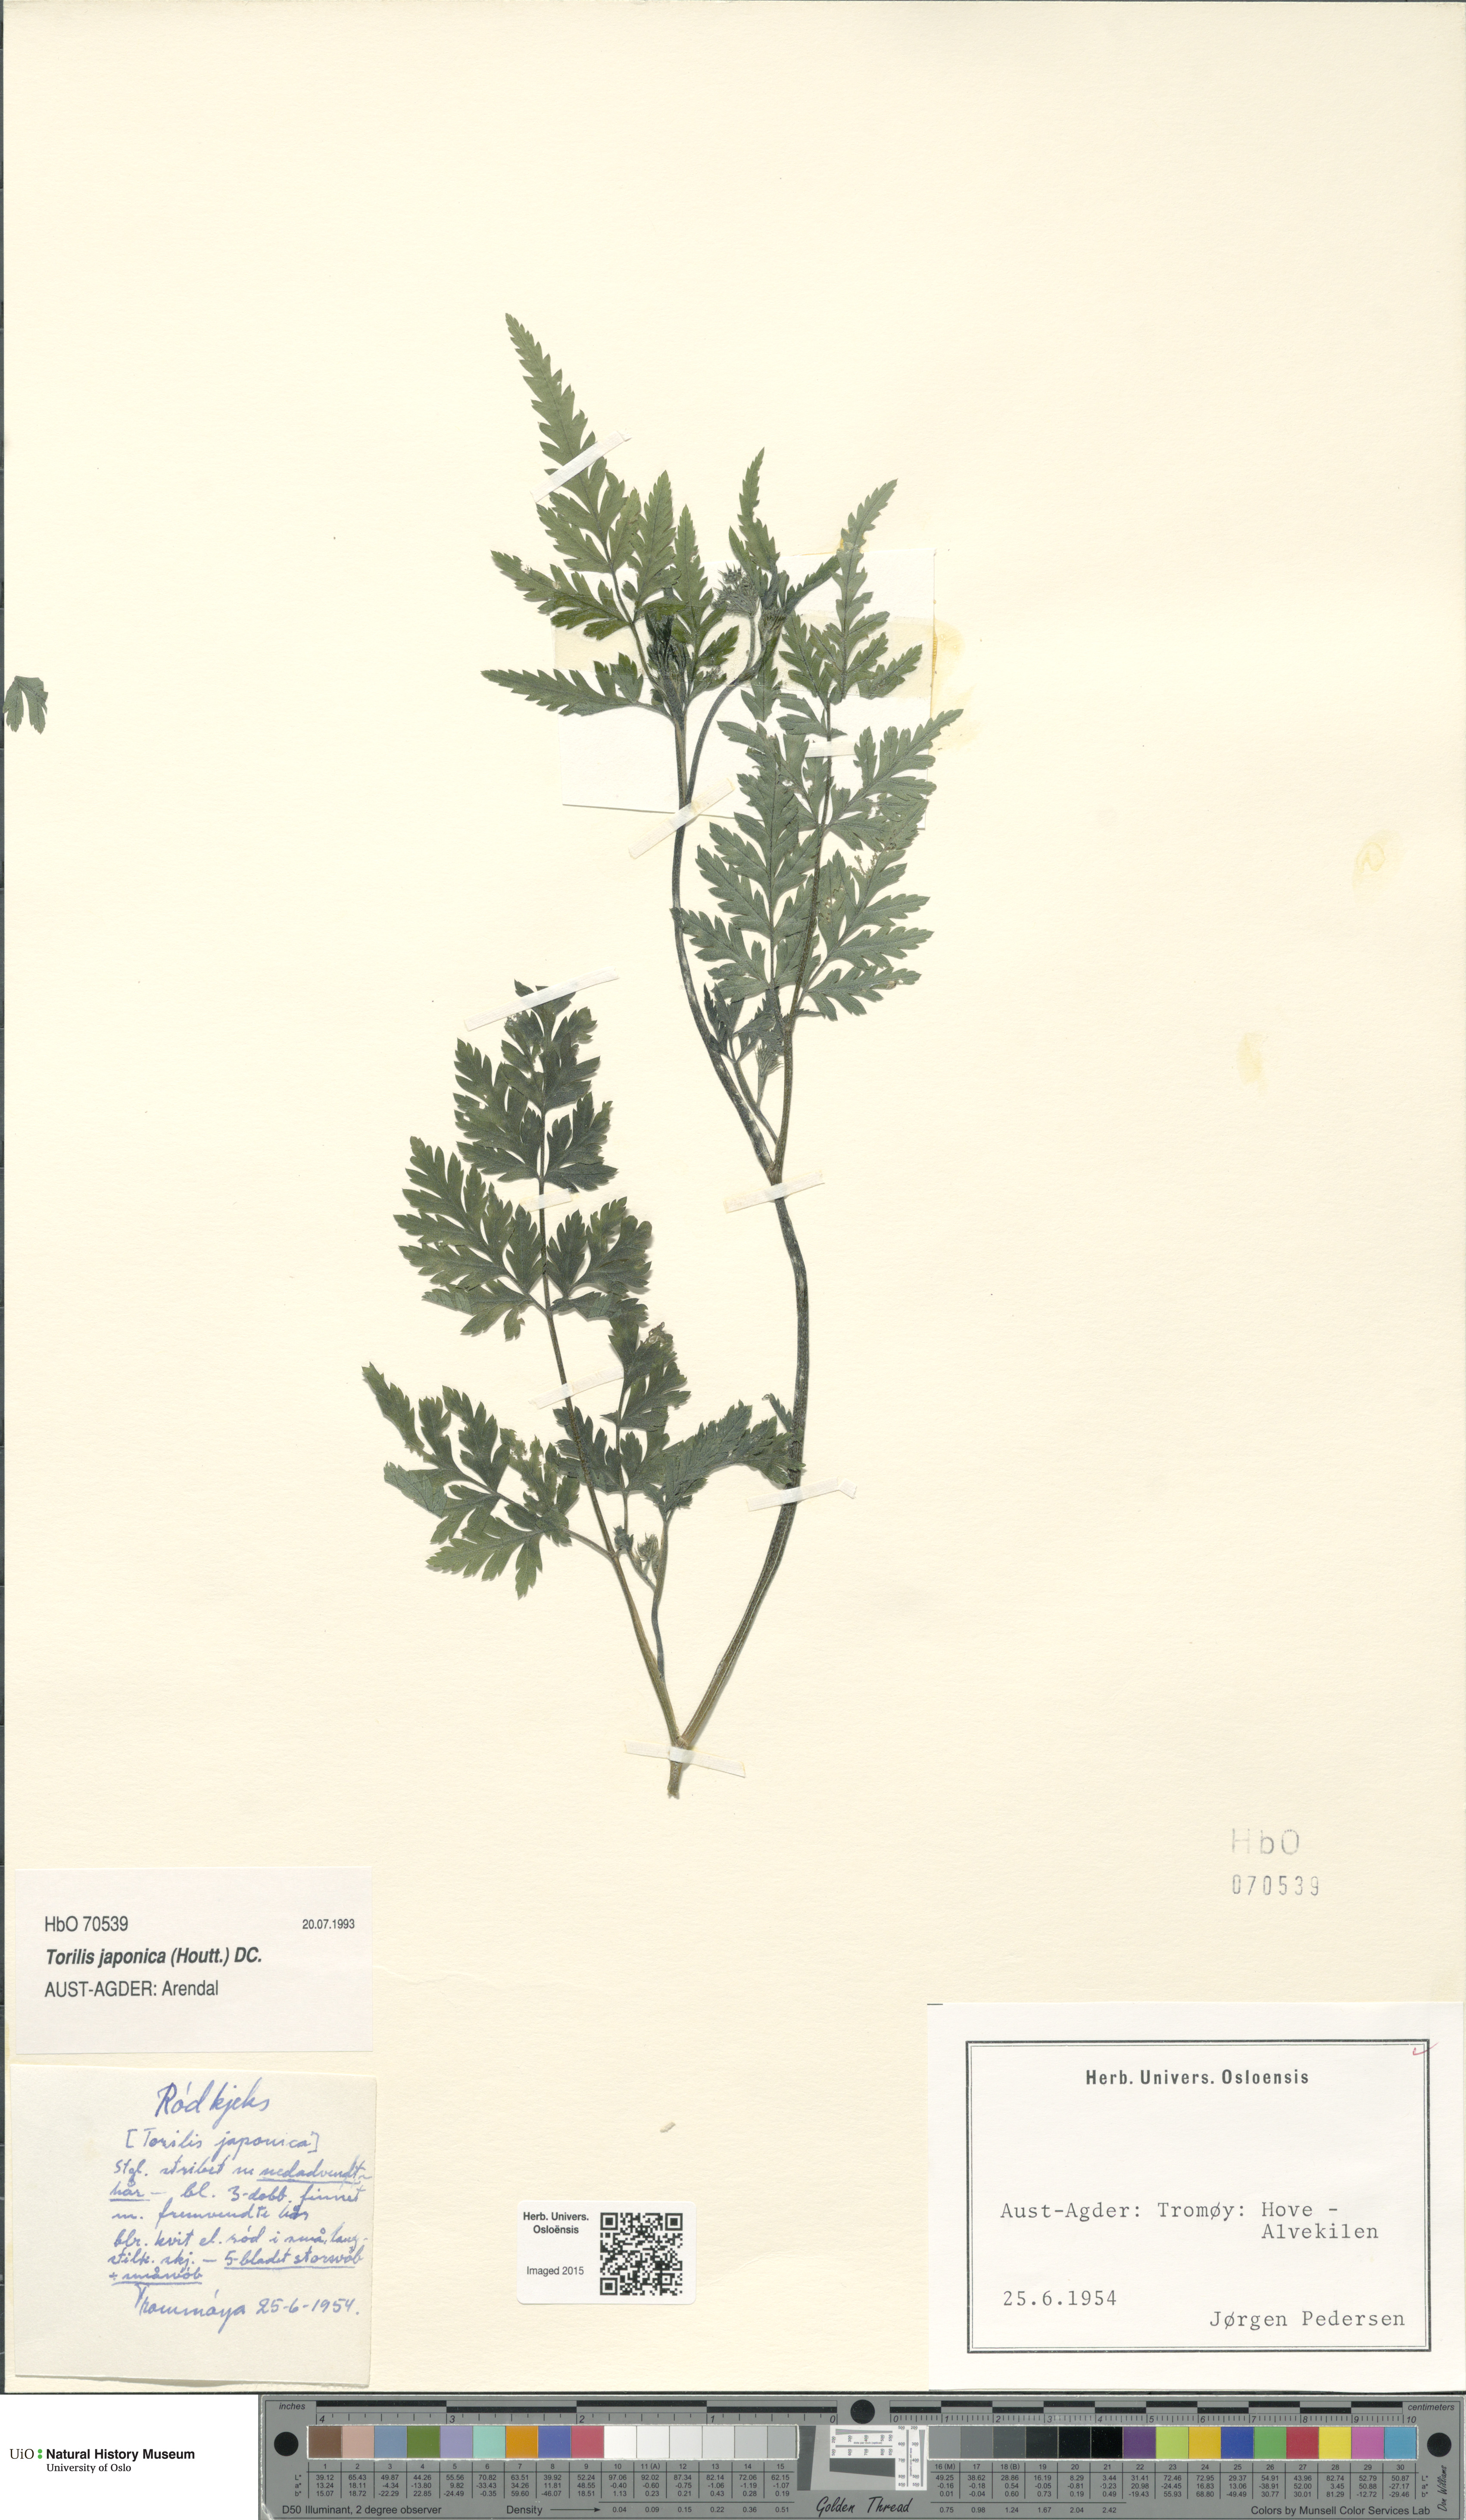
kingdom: Plantae
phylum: Tracheophyta
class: Magnoliopsida
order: Apiales
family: Apiaceae
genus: Torilis
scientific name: Torilis japonica
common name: Upright hedge-parsley
